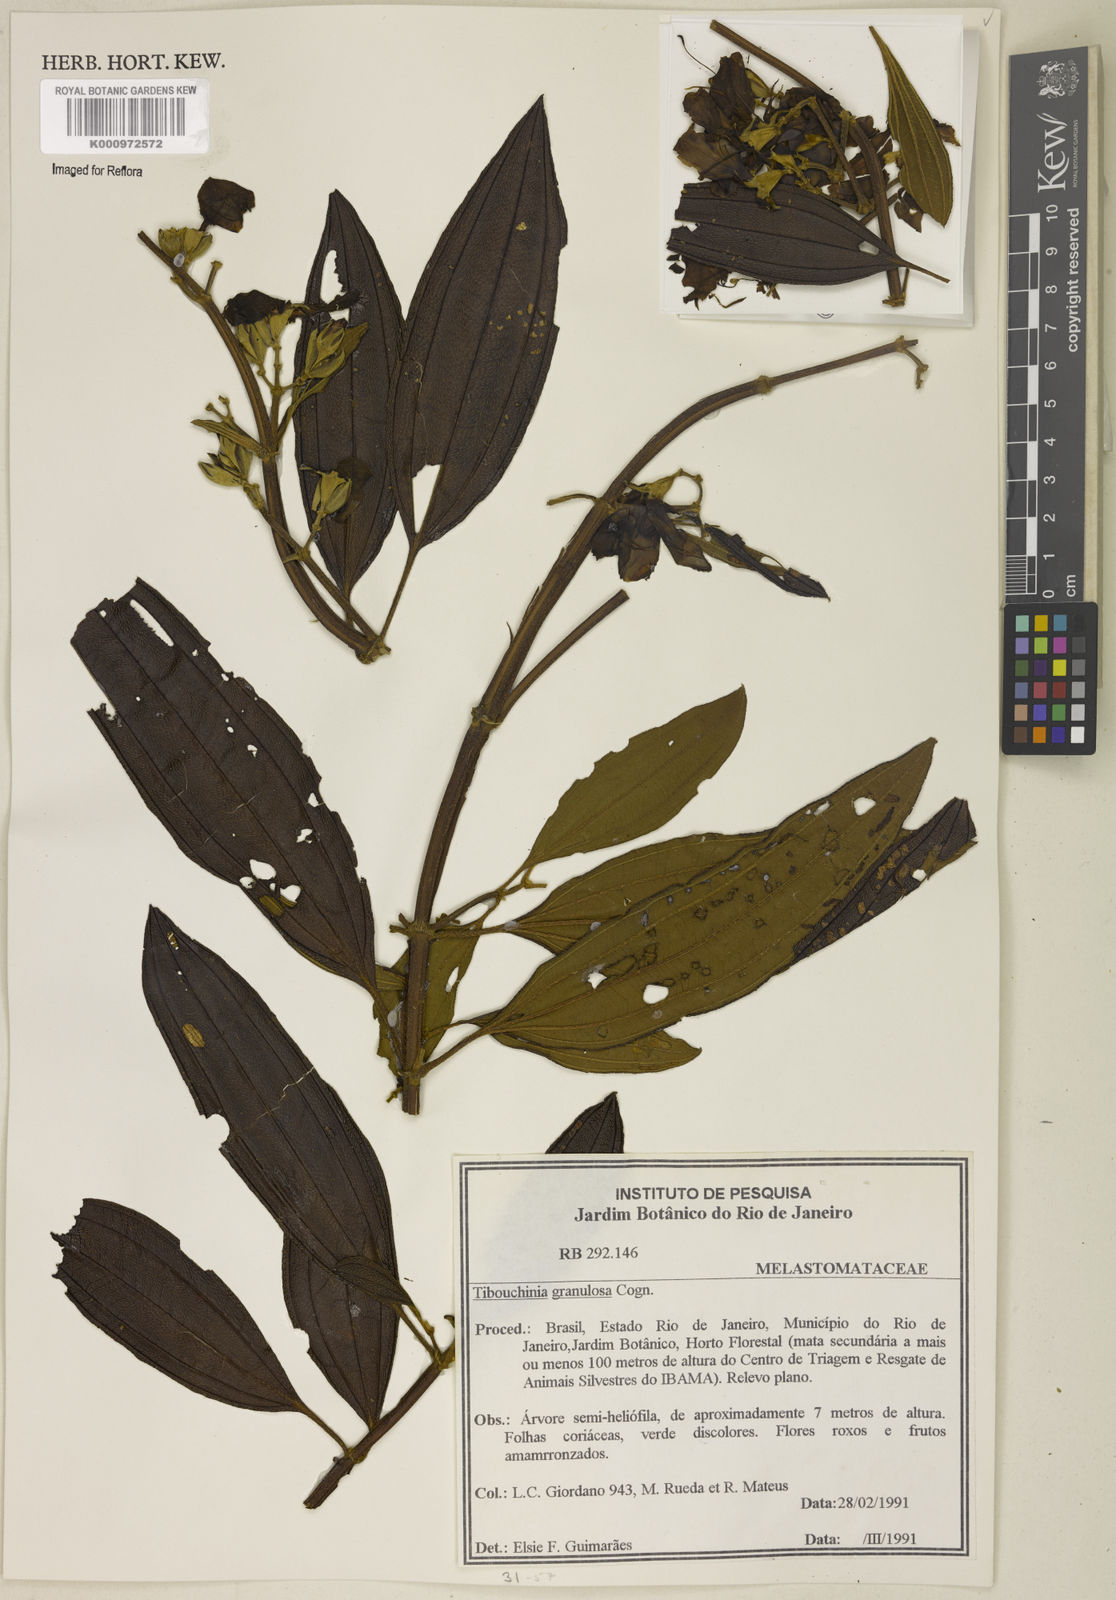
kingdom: Plantae
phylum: Tracheophyta
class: Magnoliopsida
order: Myrtales
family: Melastomataceae
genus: Pleroma
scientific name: Pleroma granulosum
